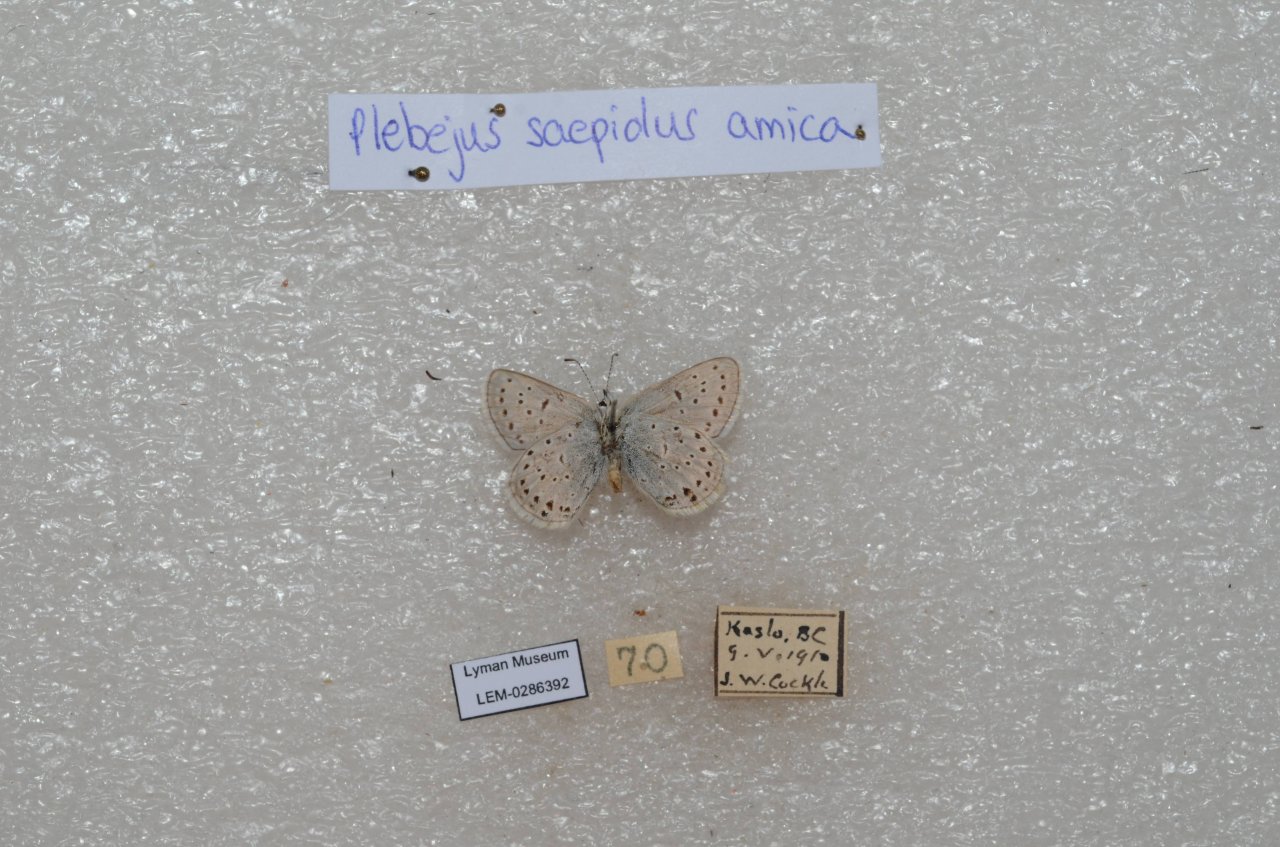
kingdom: Animalia
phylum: Arthropoda
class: Insecta
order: Lepidoptera
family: Lycaenidae
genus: Plebejus
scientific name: Plebejus saepiolus
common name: Greenish Blue
